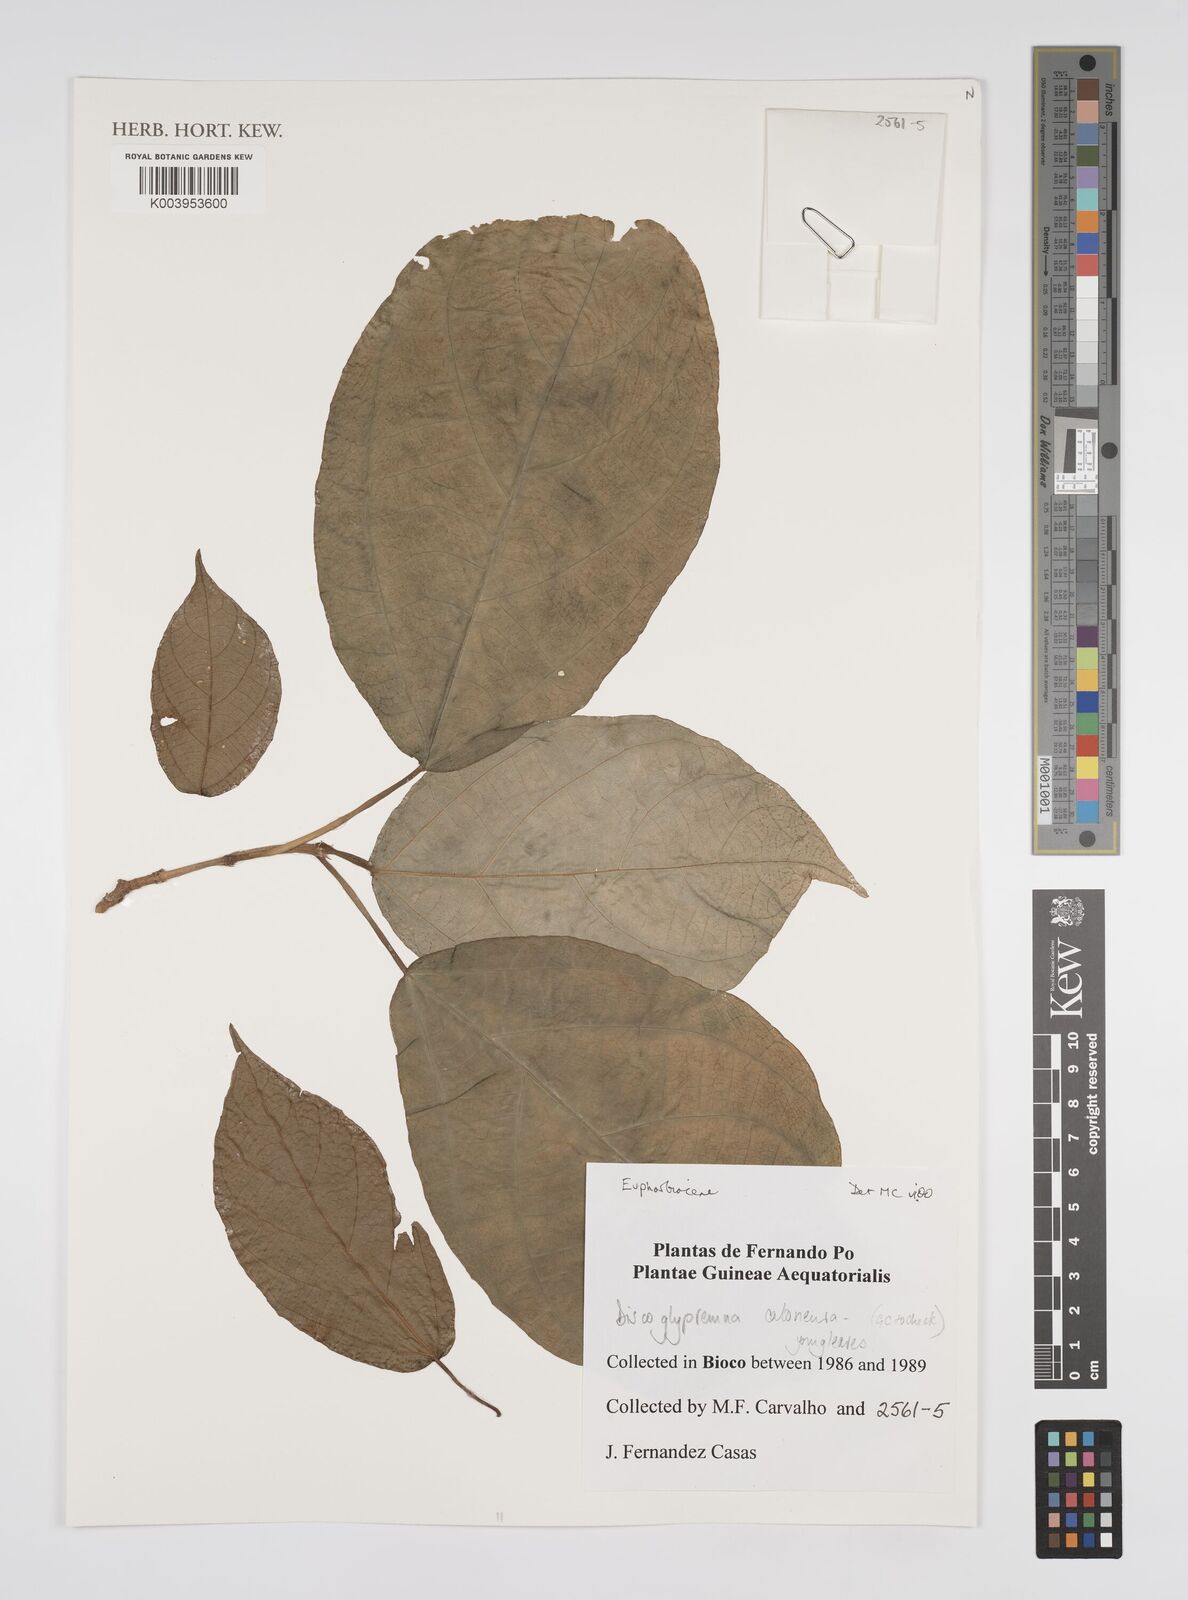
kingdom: Plantae
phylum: Tracheophyta
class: Magnoliopsida
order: Malpighiales
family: Euphorbiaceae
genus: Discoglypremna
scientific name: Discoglypremna caloneura
